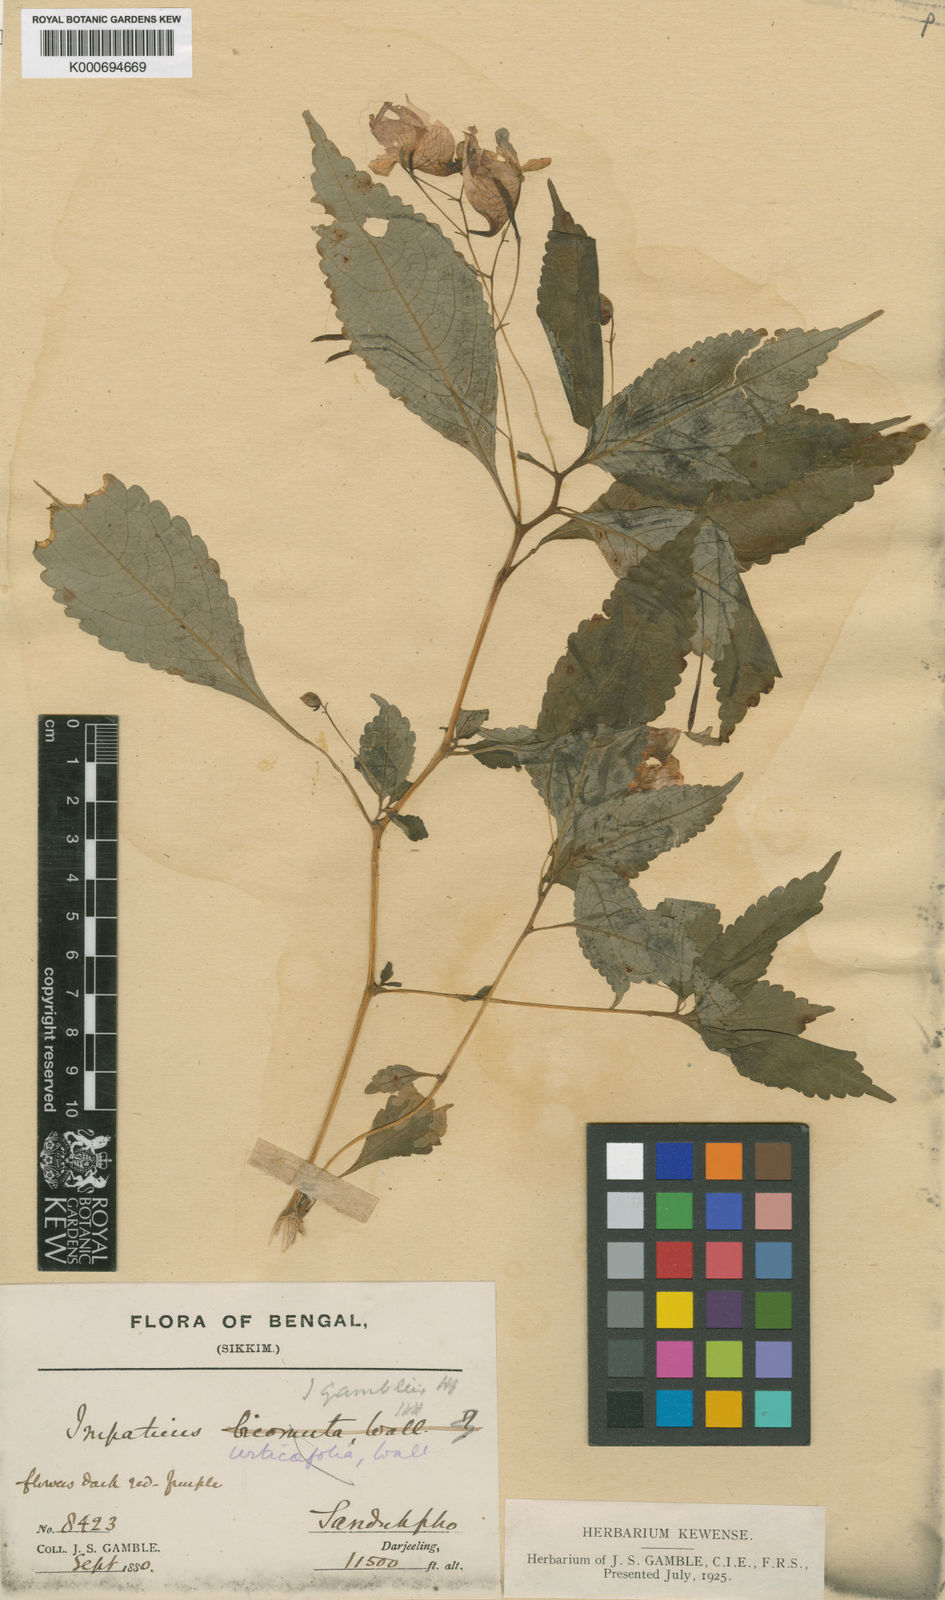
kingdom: Plantae
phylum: Tracheophyta
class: Magnoliopsida
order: Ericales
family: Balsaminaceae
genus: Impatiens
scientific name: Impatiens gamblei
